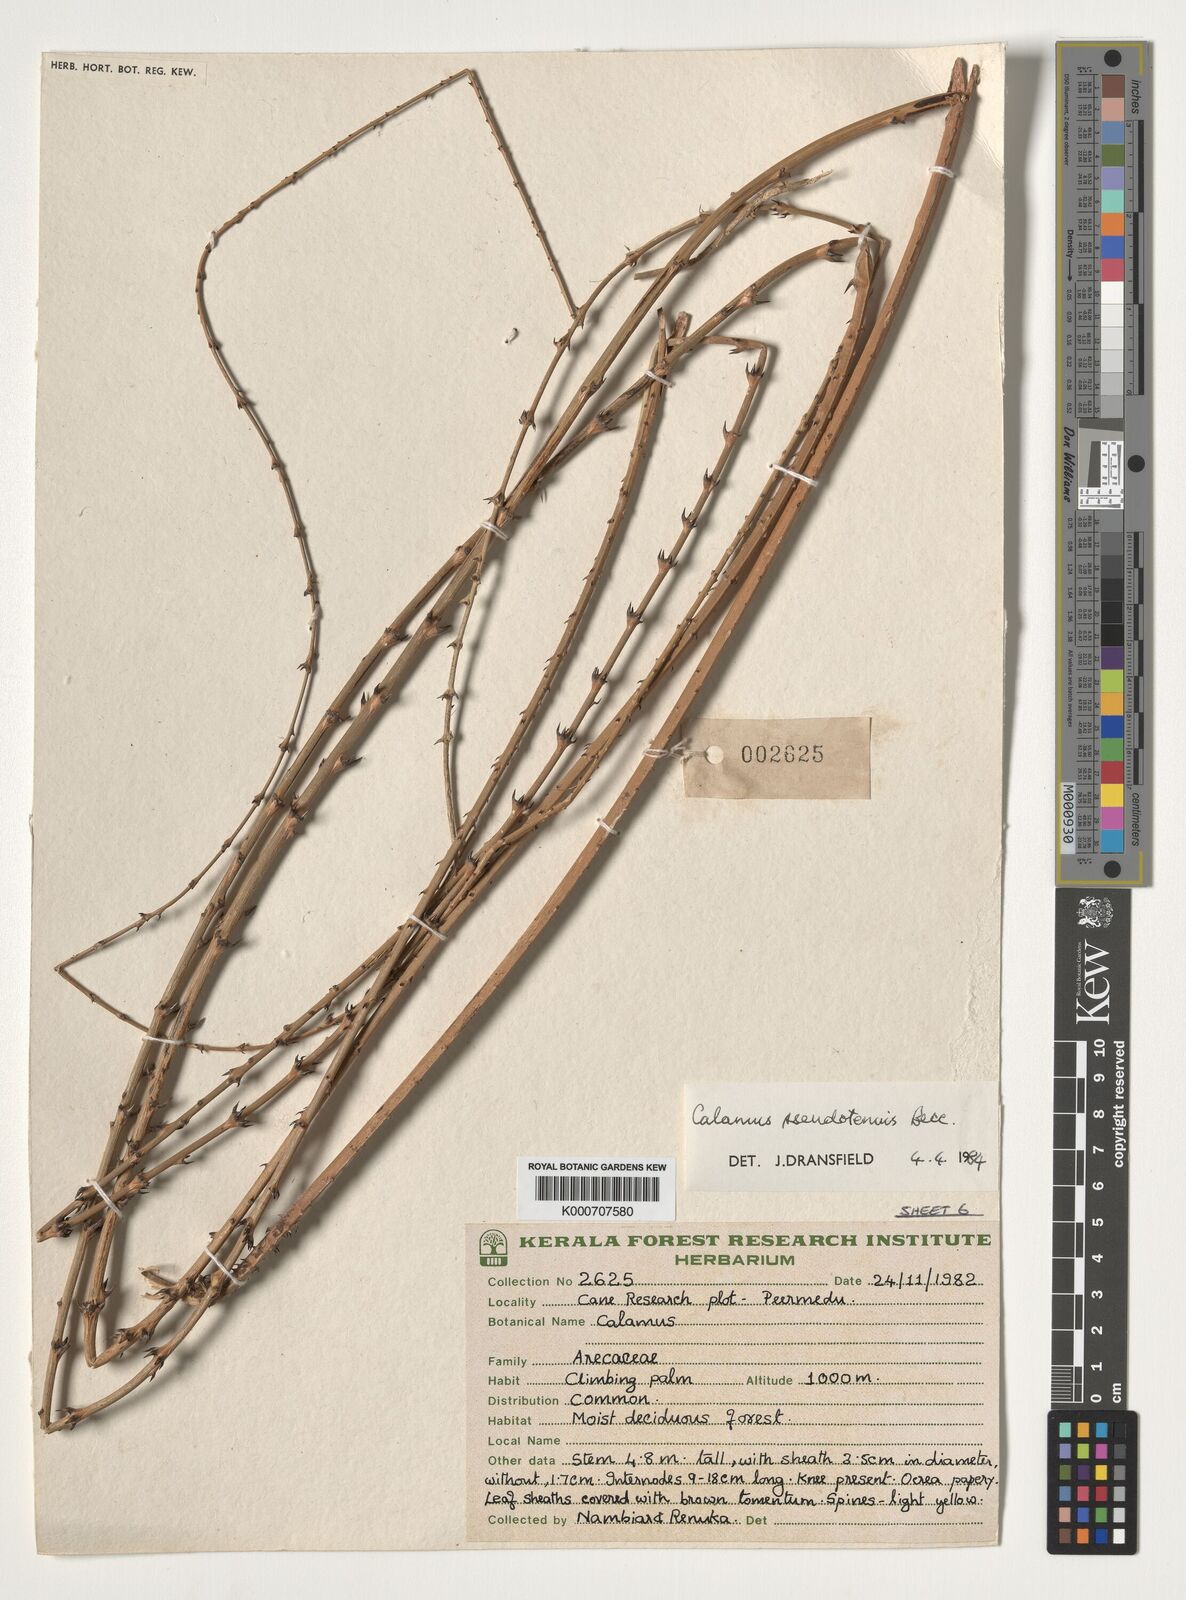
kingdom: Plantae
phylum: Tracheophyta
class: Liliopsida
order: Arecales
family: Arecaceae
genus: Calamus
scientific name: Calamus pseudotenuis
